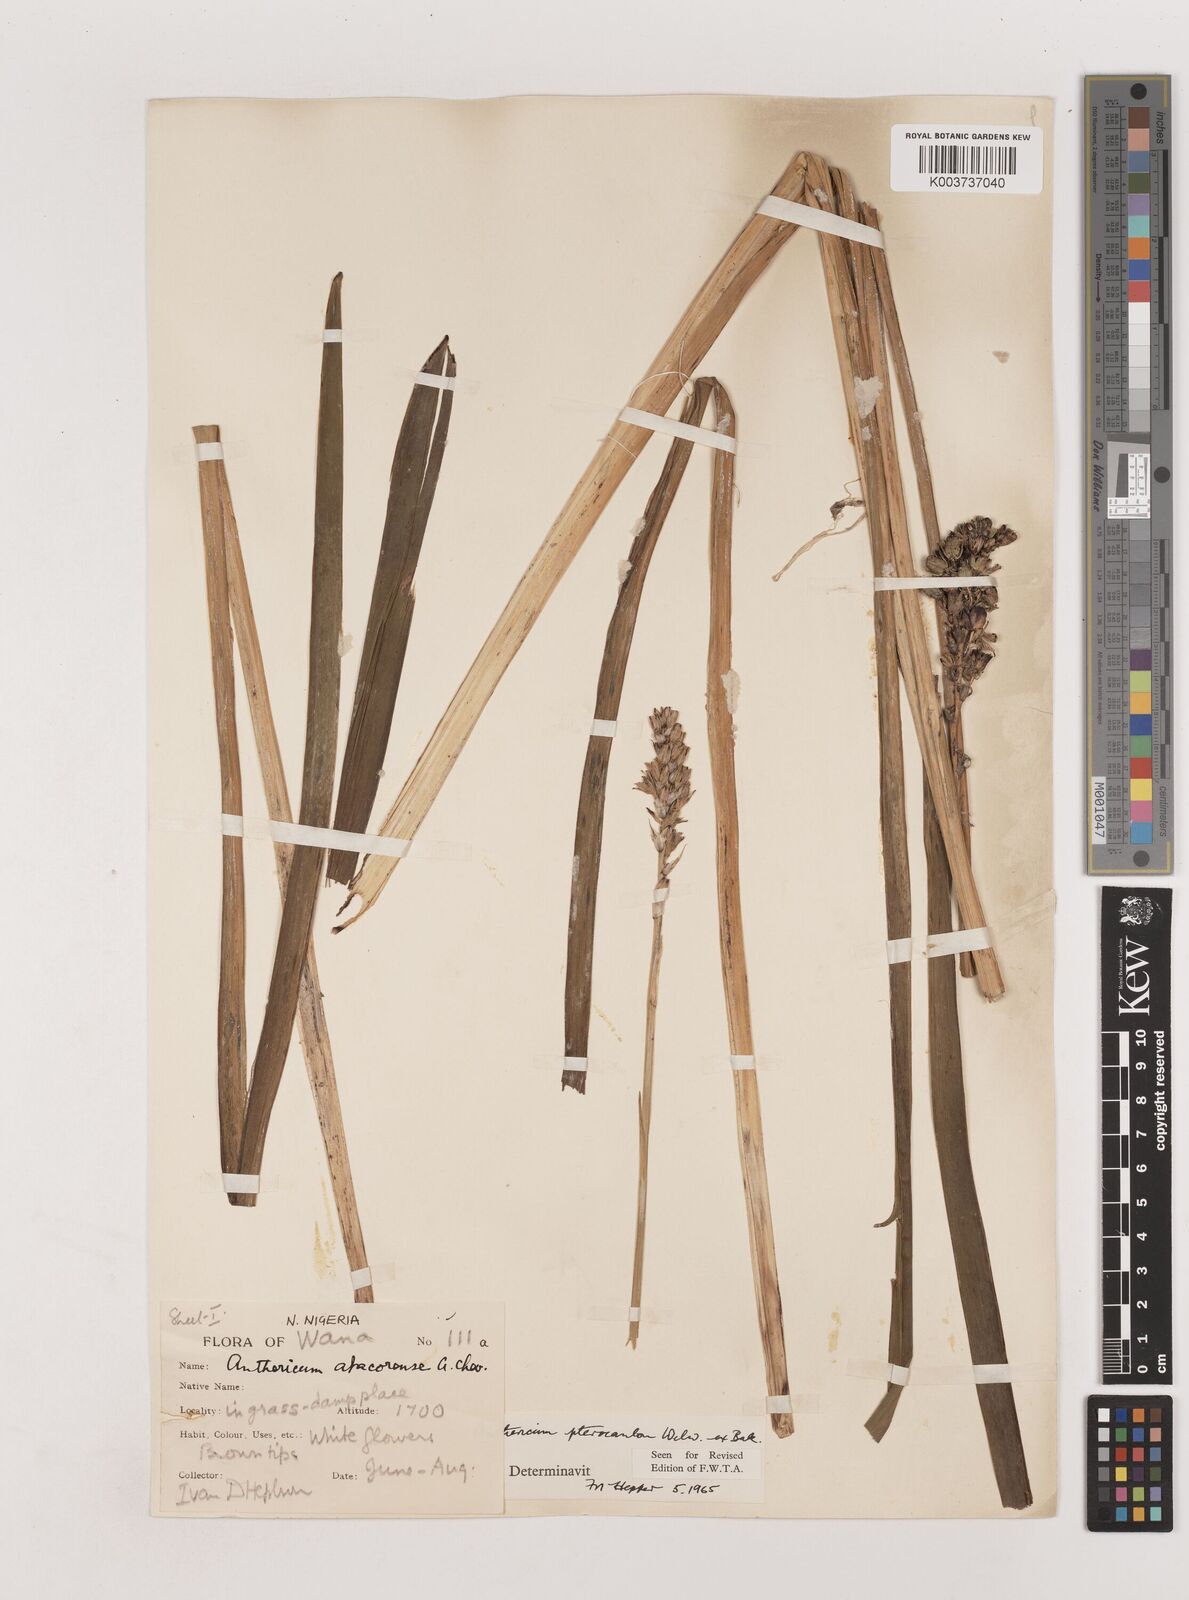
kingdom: Plantae
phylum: Tracheophyta
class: Liliopsida
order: Asparagales
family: Asparagaceae
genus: Chlorophytum
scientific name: Chlorophytum cameronii
